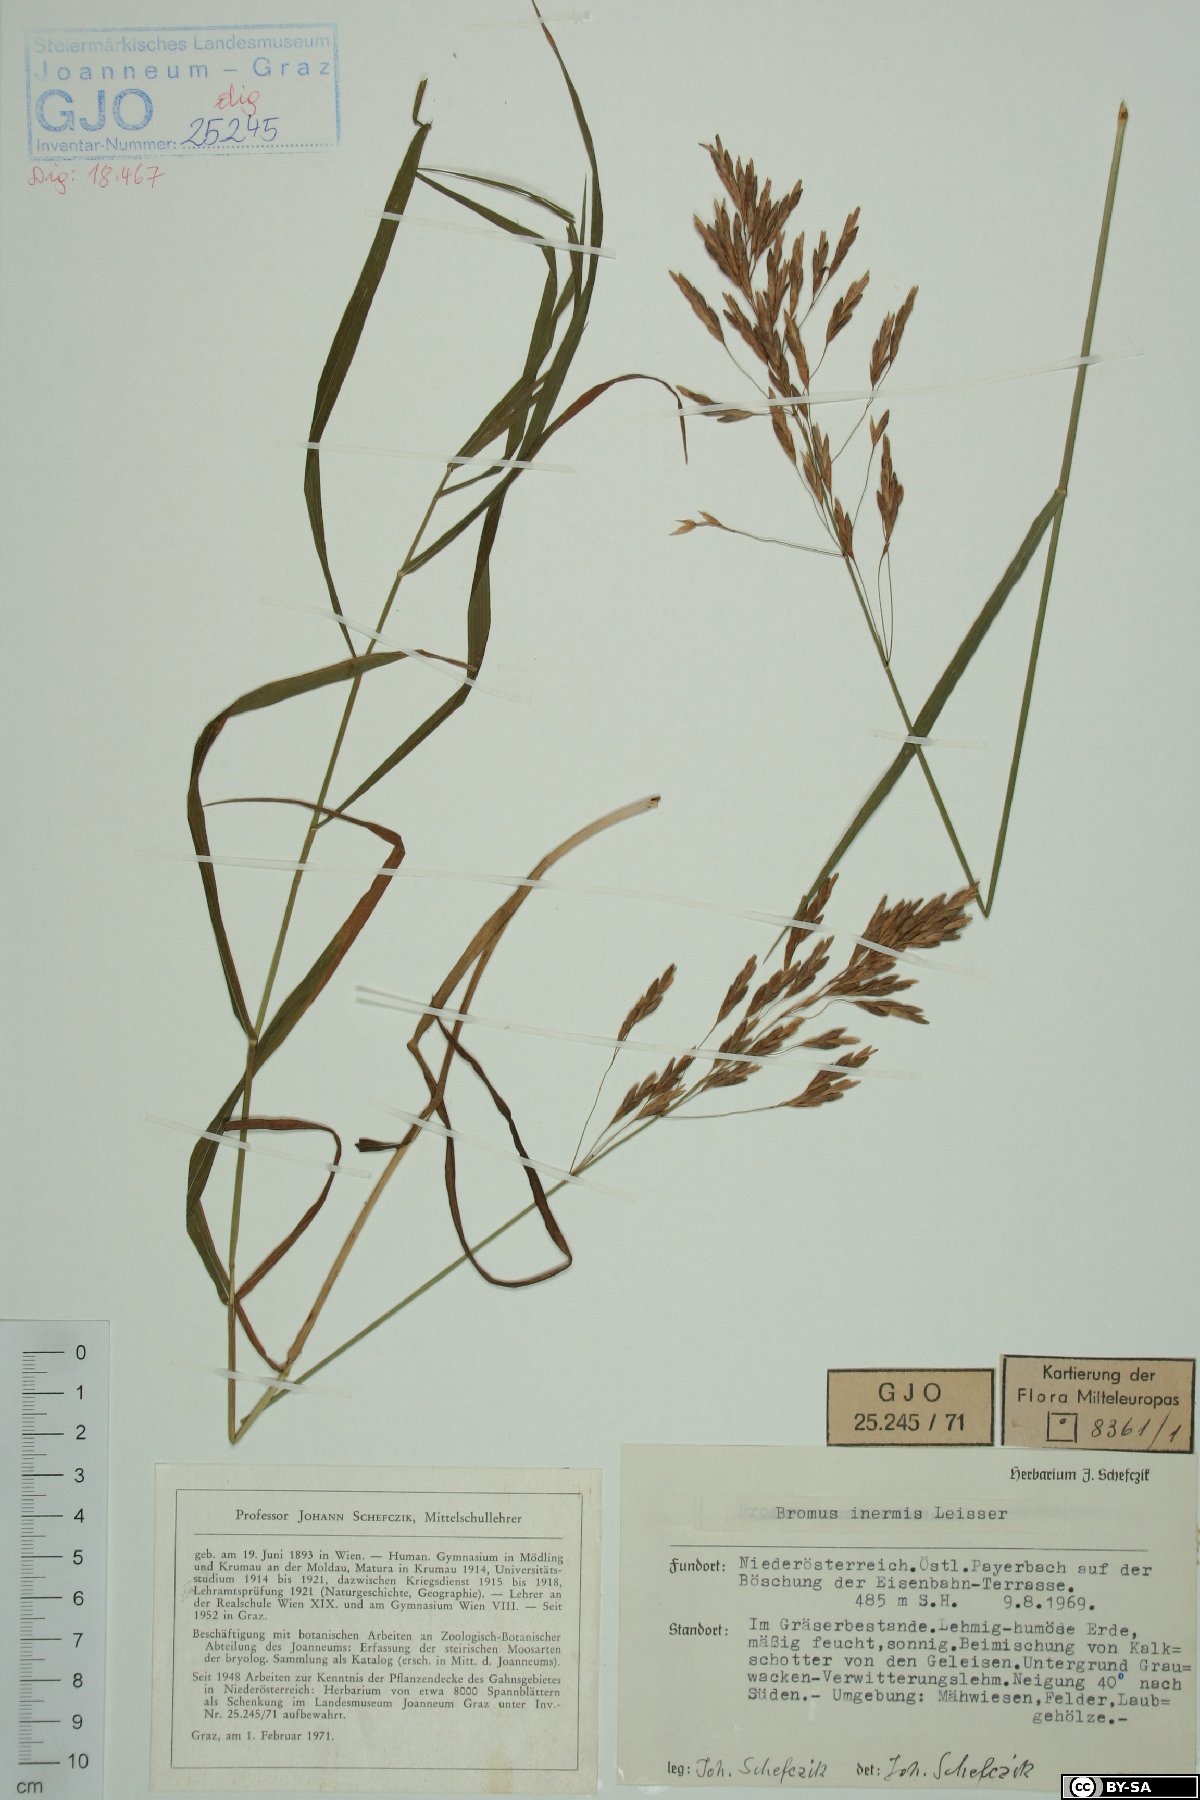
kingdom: Plantae
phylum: Tracheophyta
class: Liliopsida
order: Poales
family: Poaceae
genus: Bromus
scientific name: Bromus inermis
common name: Smooth brome
